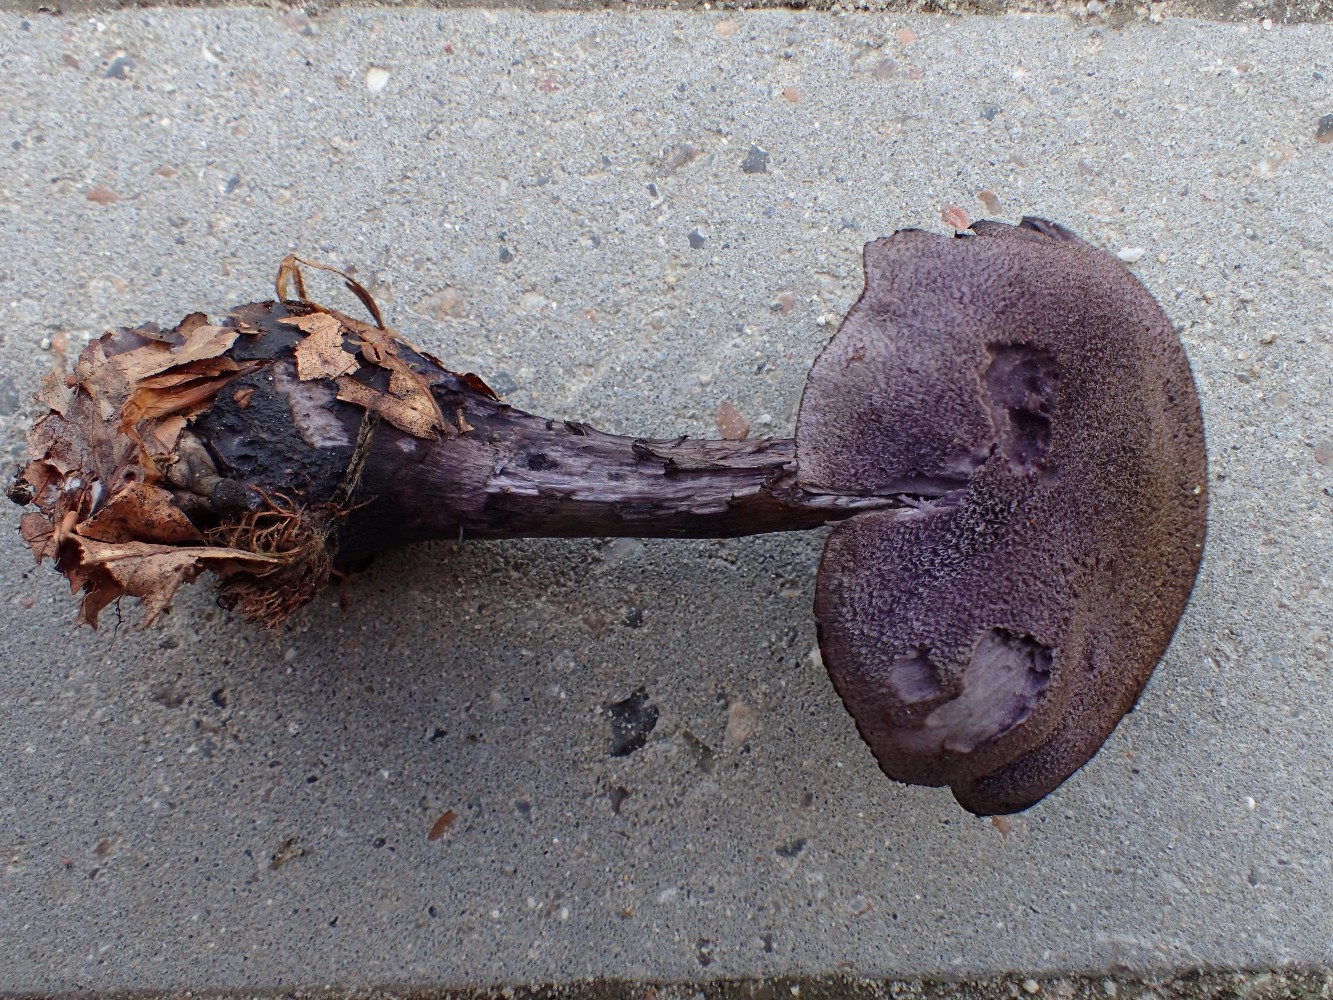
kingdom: Fungi
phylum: Basidiomycota
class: Agaricomycetes
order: Agaricales
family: Cortinariaceae
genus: Cortinarius
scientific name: Cortinarius violaceus
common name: mørkviolet slørhat
